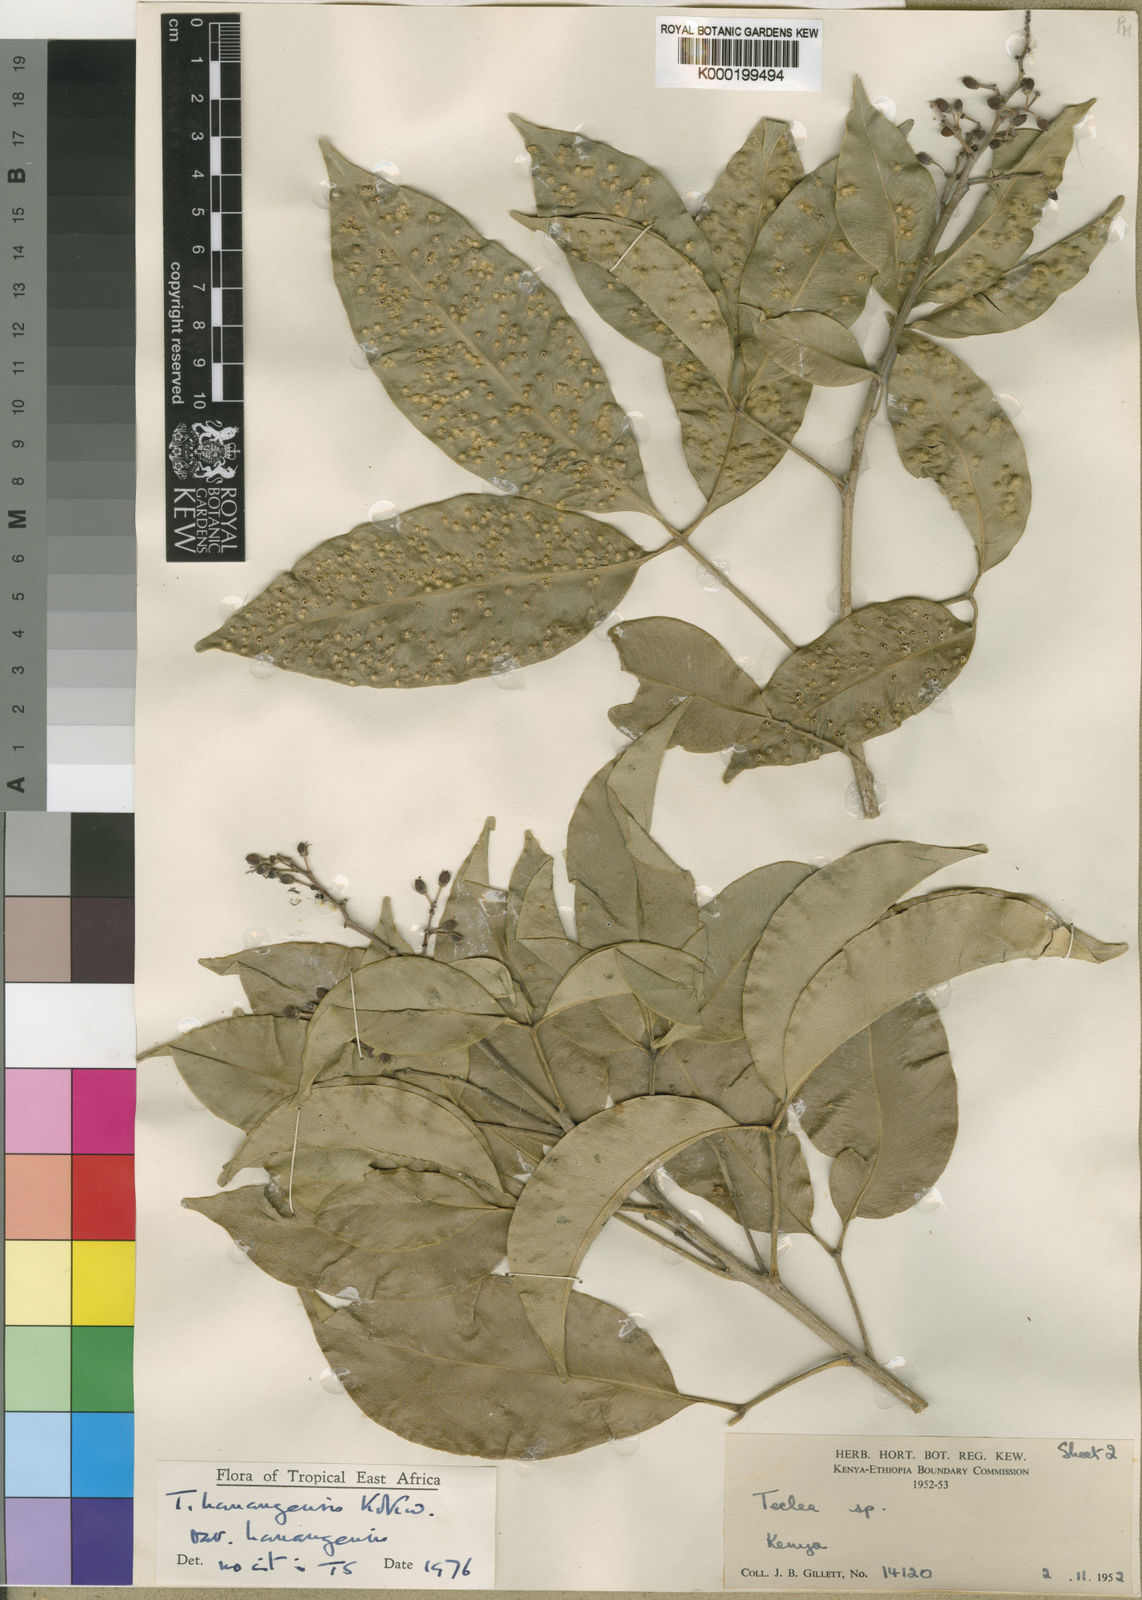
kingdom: Plantae
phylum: Tracheophyta
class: Magnoliopsida
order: Sapindales
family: Rutaceae
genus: Vepris
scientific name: Vepris borenensis
